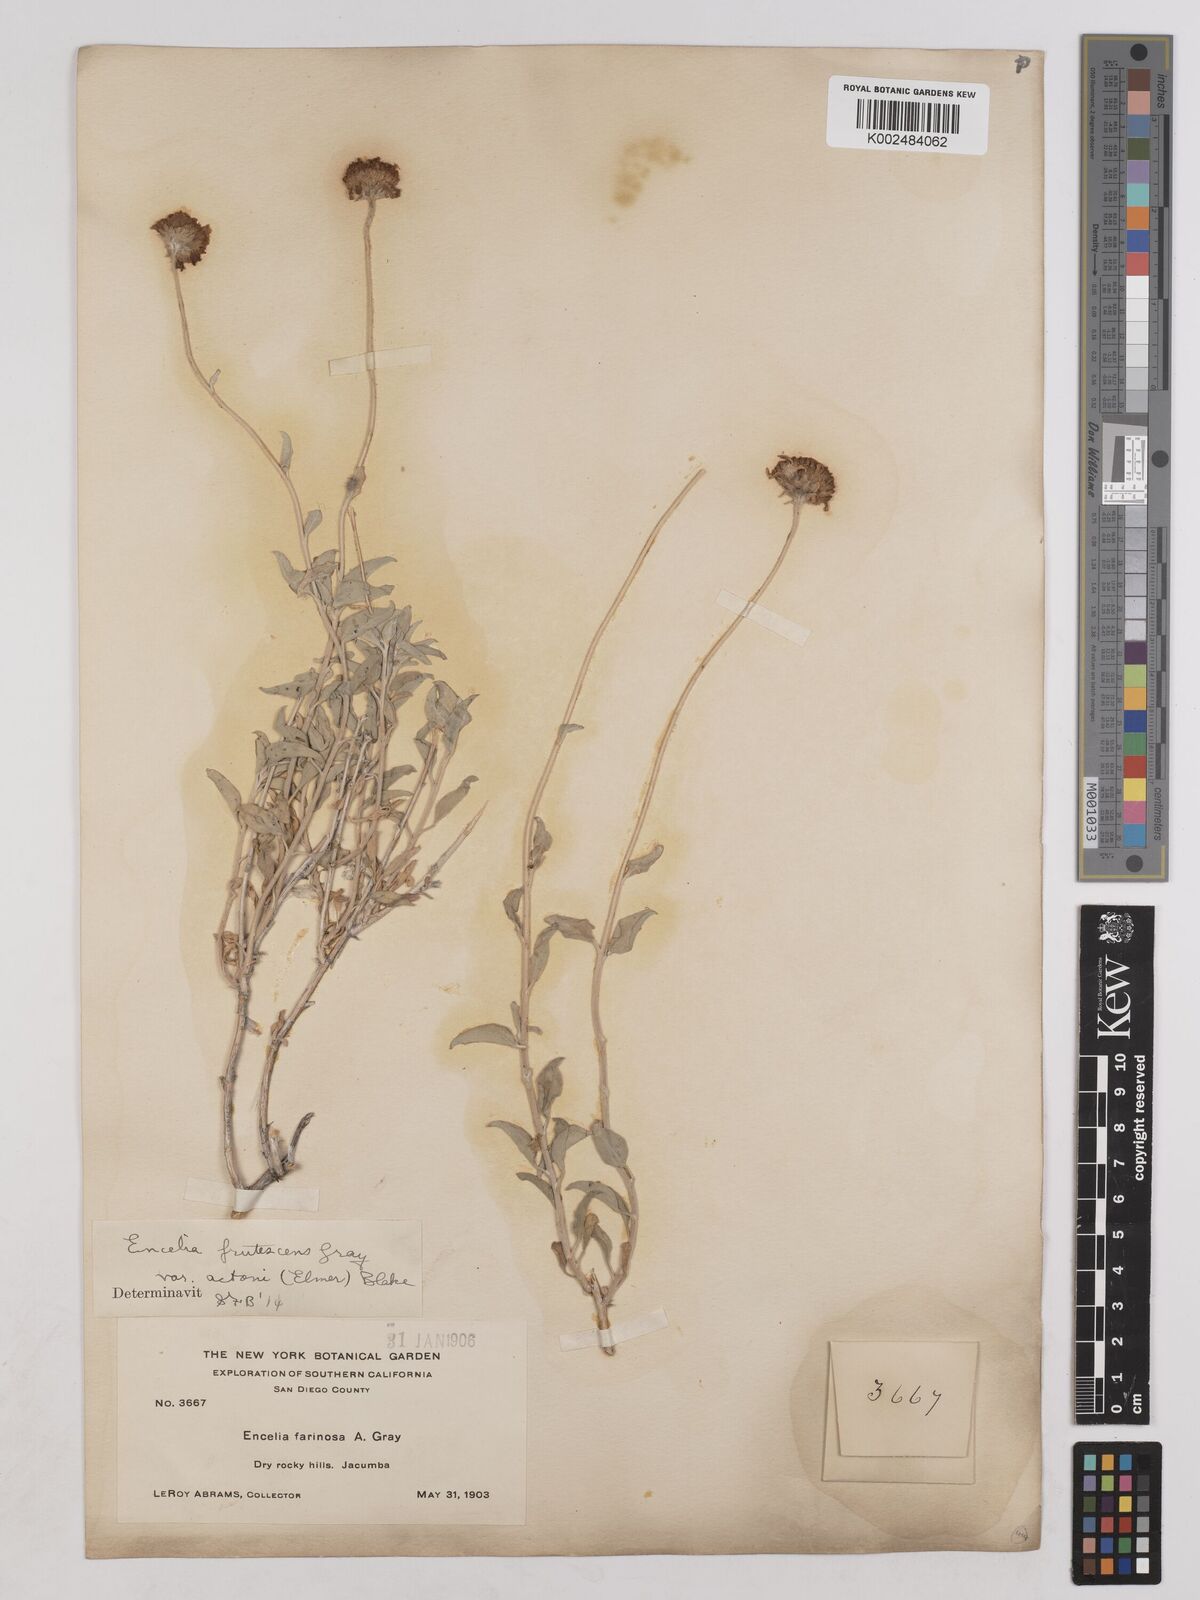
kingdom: Plantae
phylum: Tracheophyta
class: Magnoliopsida
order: Asterales
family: Asteraceae
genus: Encelia
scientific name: Encelia actoni
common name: Acton encelia
